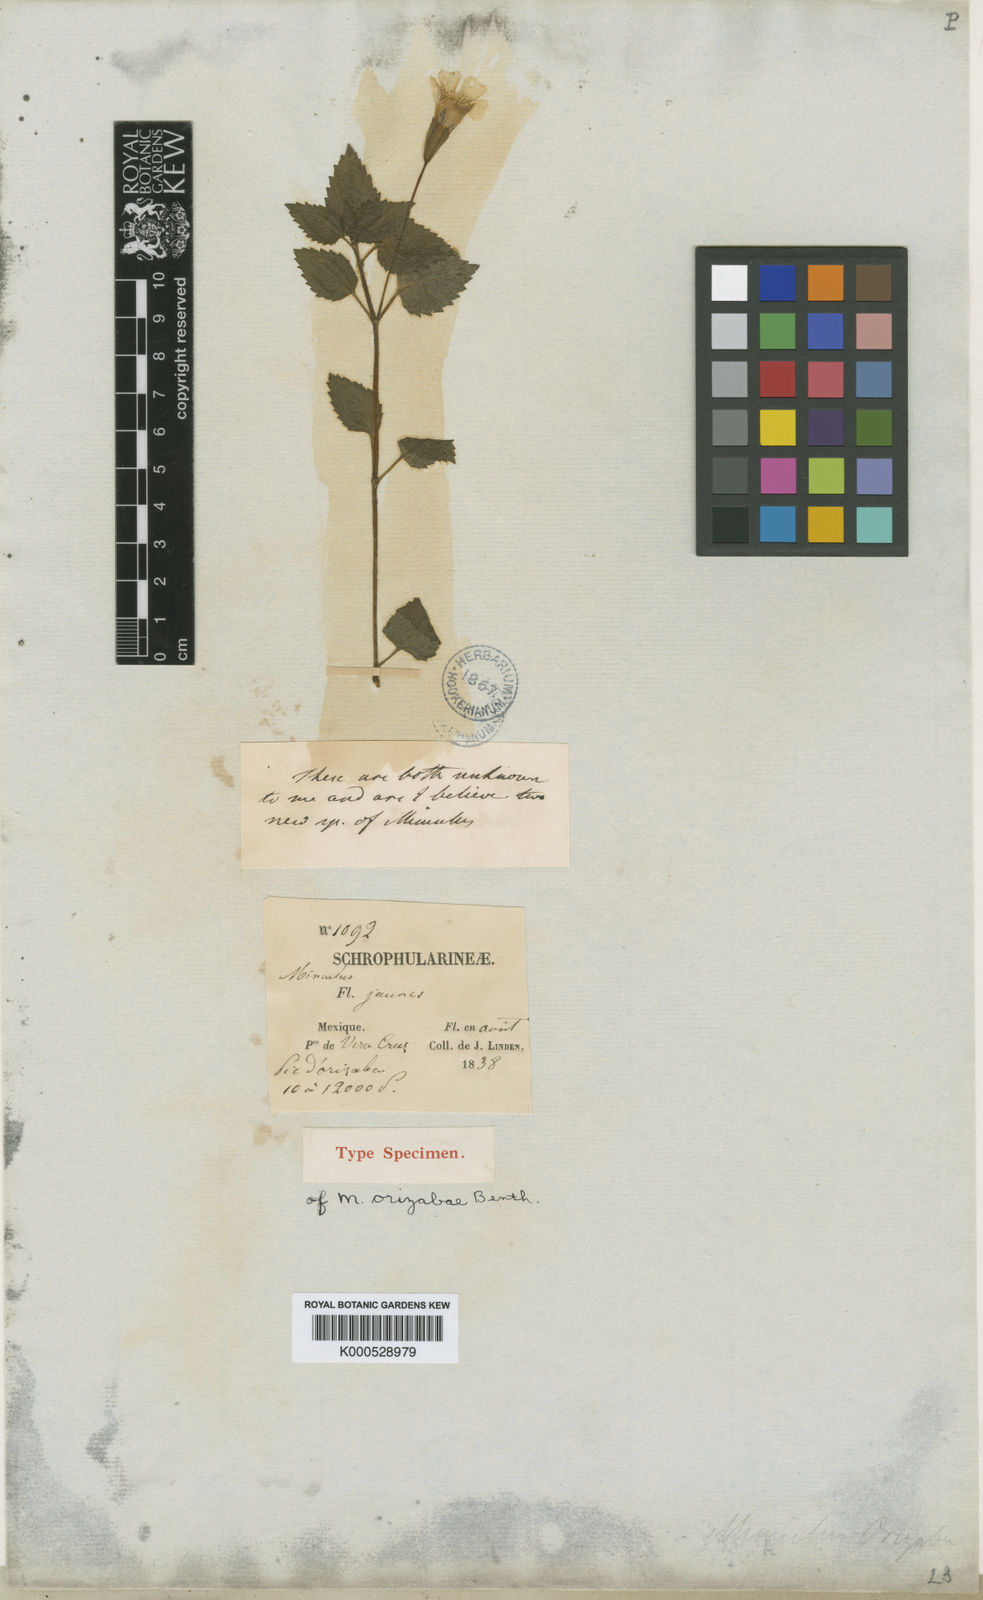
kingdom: Plantae
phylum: Tracheophyta
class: Magnoliopsida
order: Lamiales
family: Phrymaceae
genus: Erythranthe
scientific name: Erythranthe orizabae
